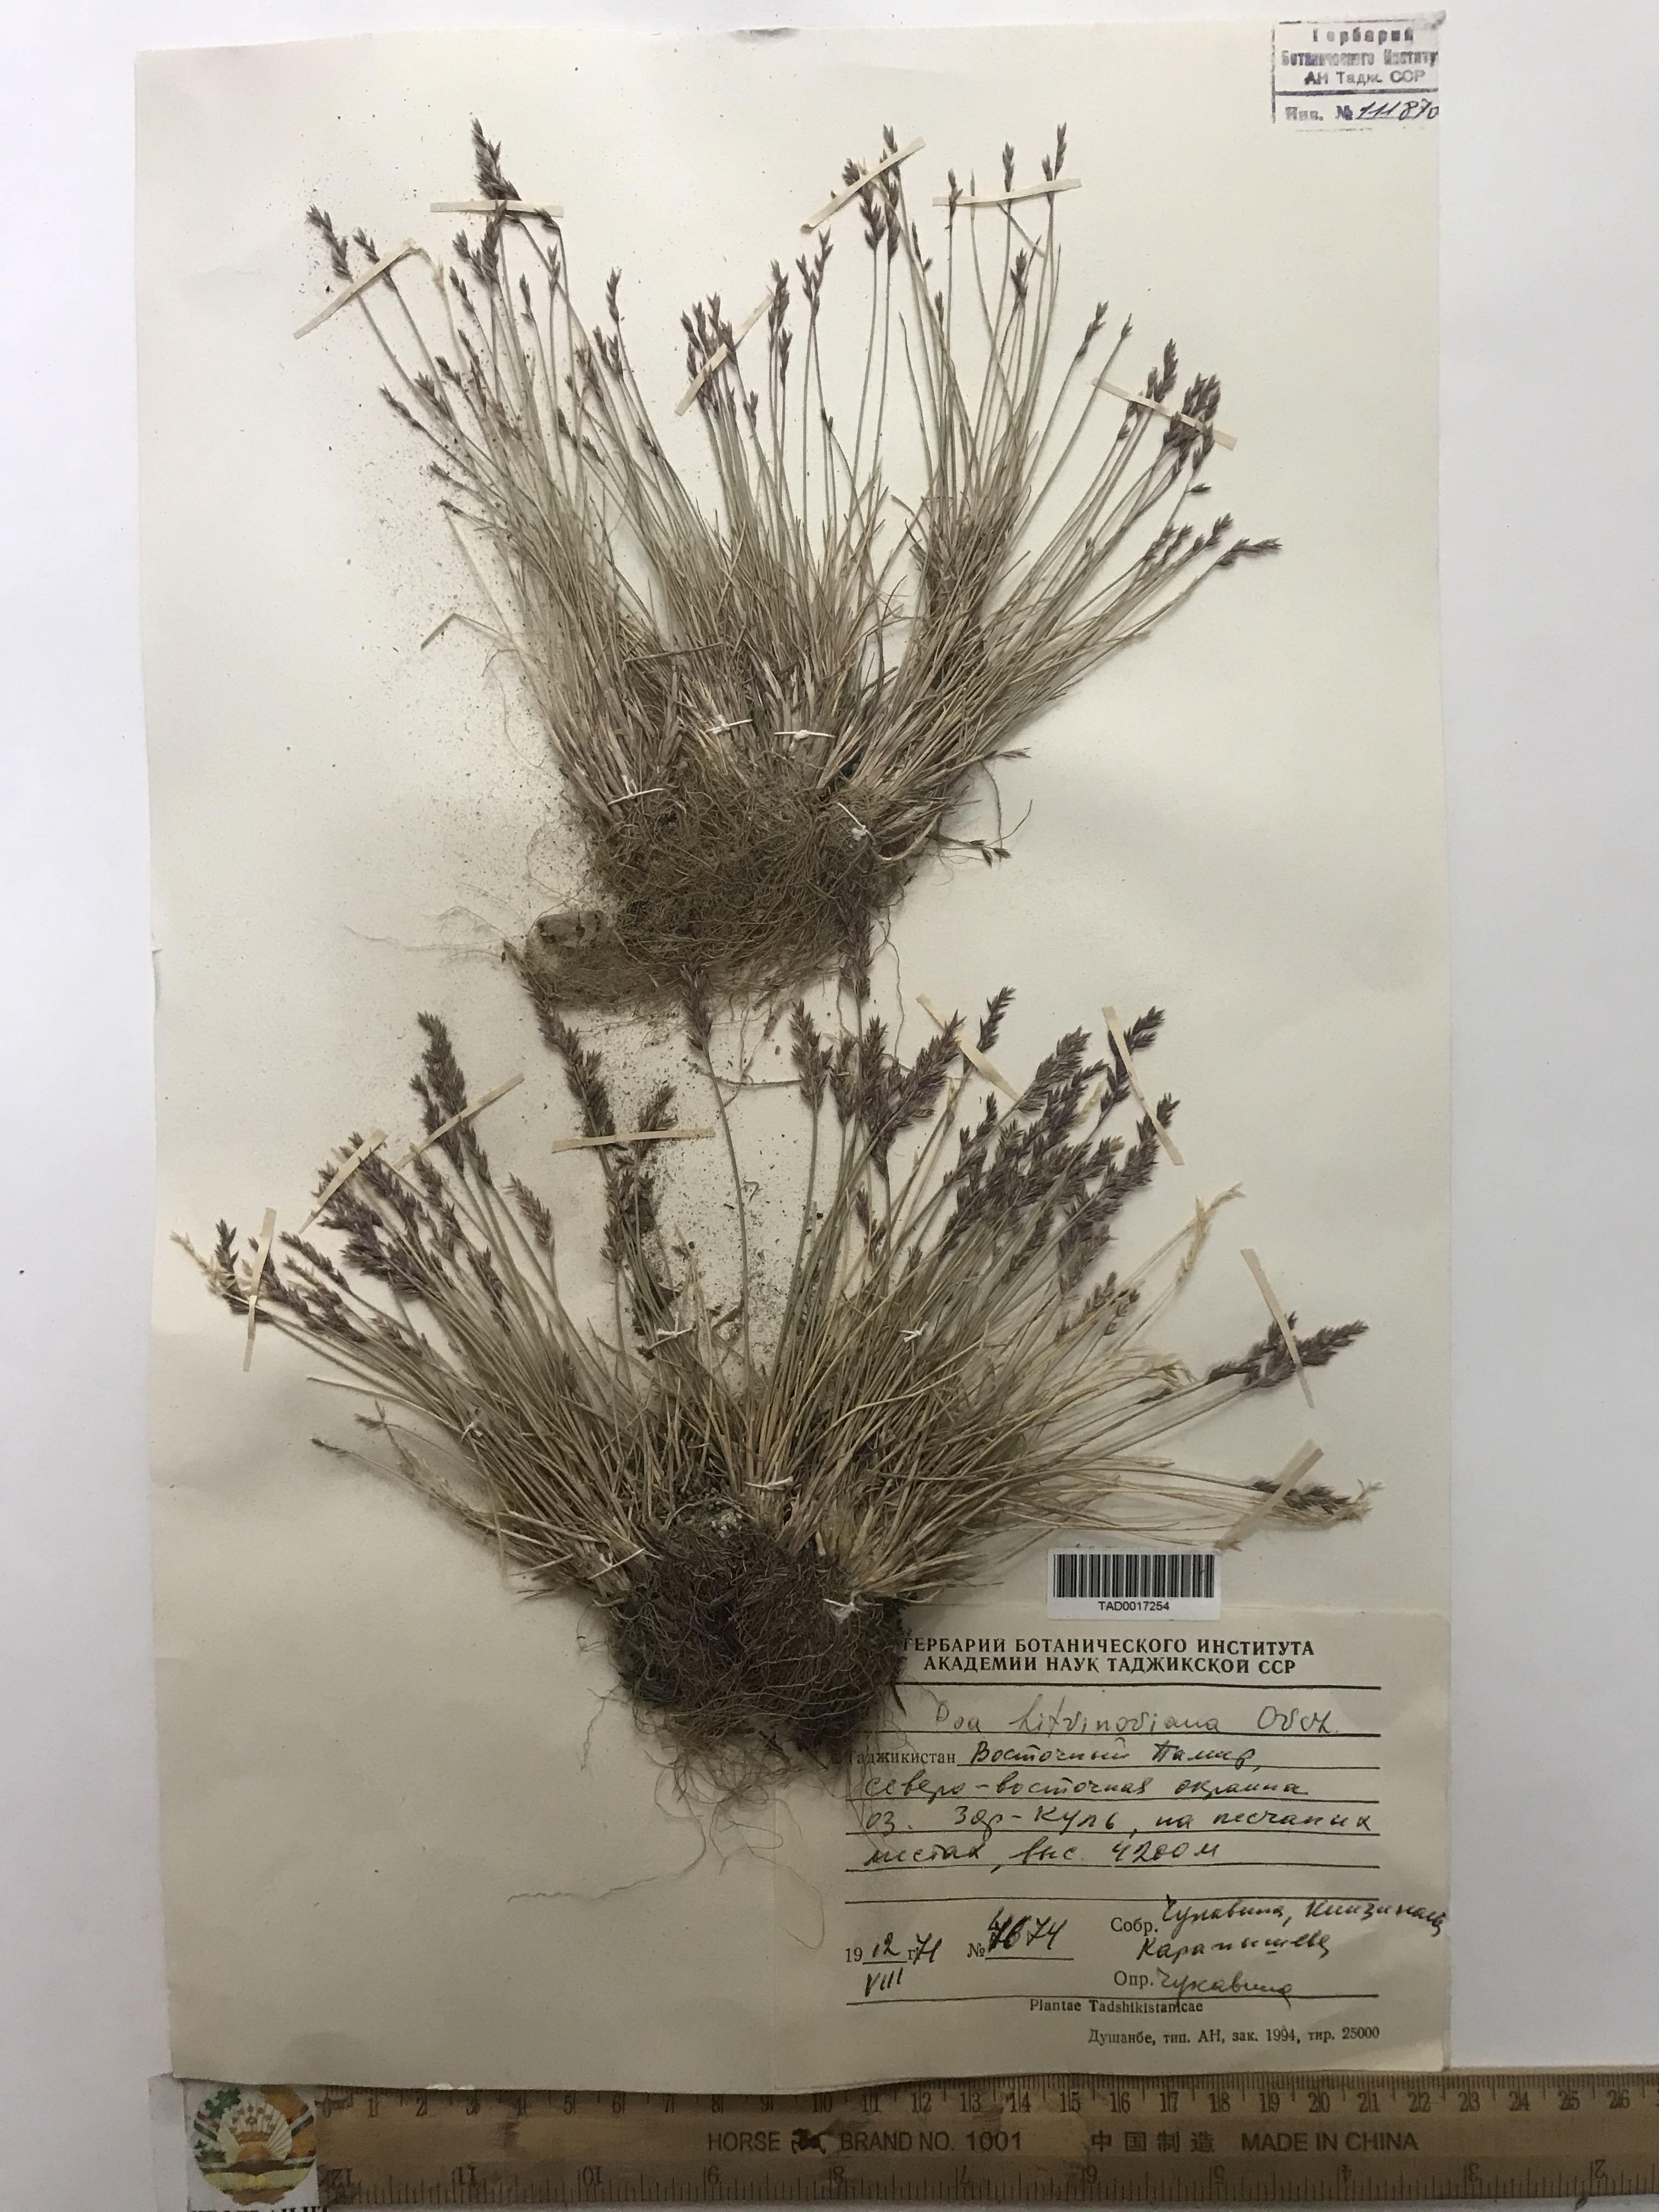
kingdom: Plantae
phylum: Tracheophyta
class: Liliopsida
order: Poales
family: Poaceae
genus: Poa
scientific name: Poa glauca
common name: Glaucous bluegrass
